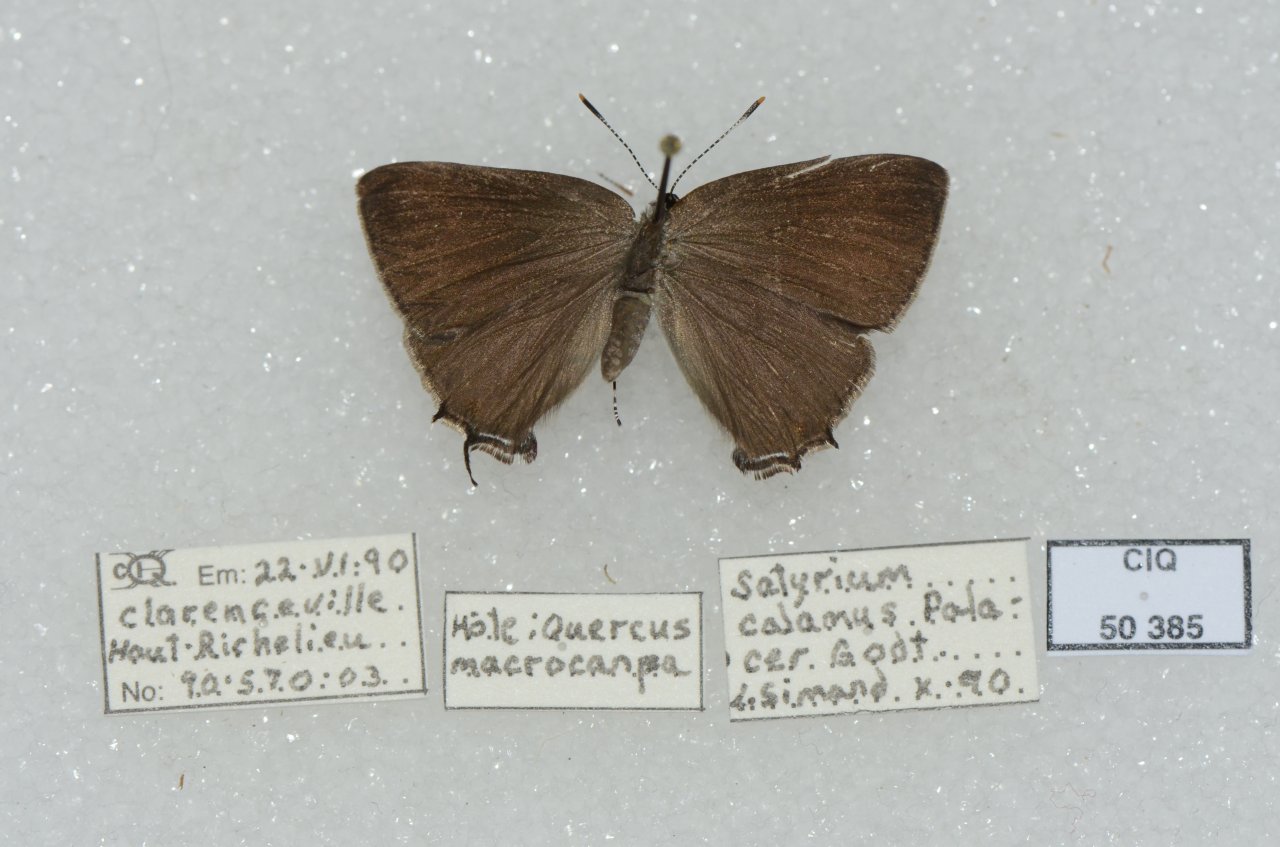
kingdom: Animalia
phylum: Arthropoda
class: Insecta
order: Lepidoptera
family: Lycaenidae
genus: Satyrium
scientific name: Satyrium calanus
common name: Banded Hairstreak
